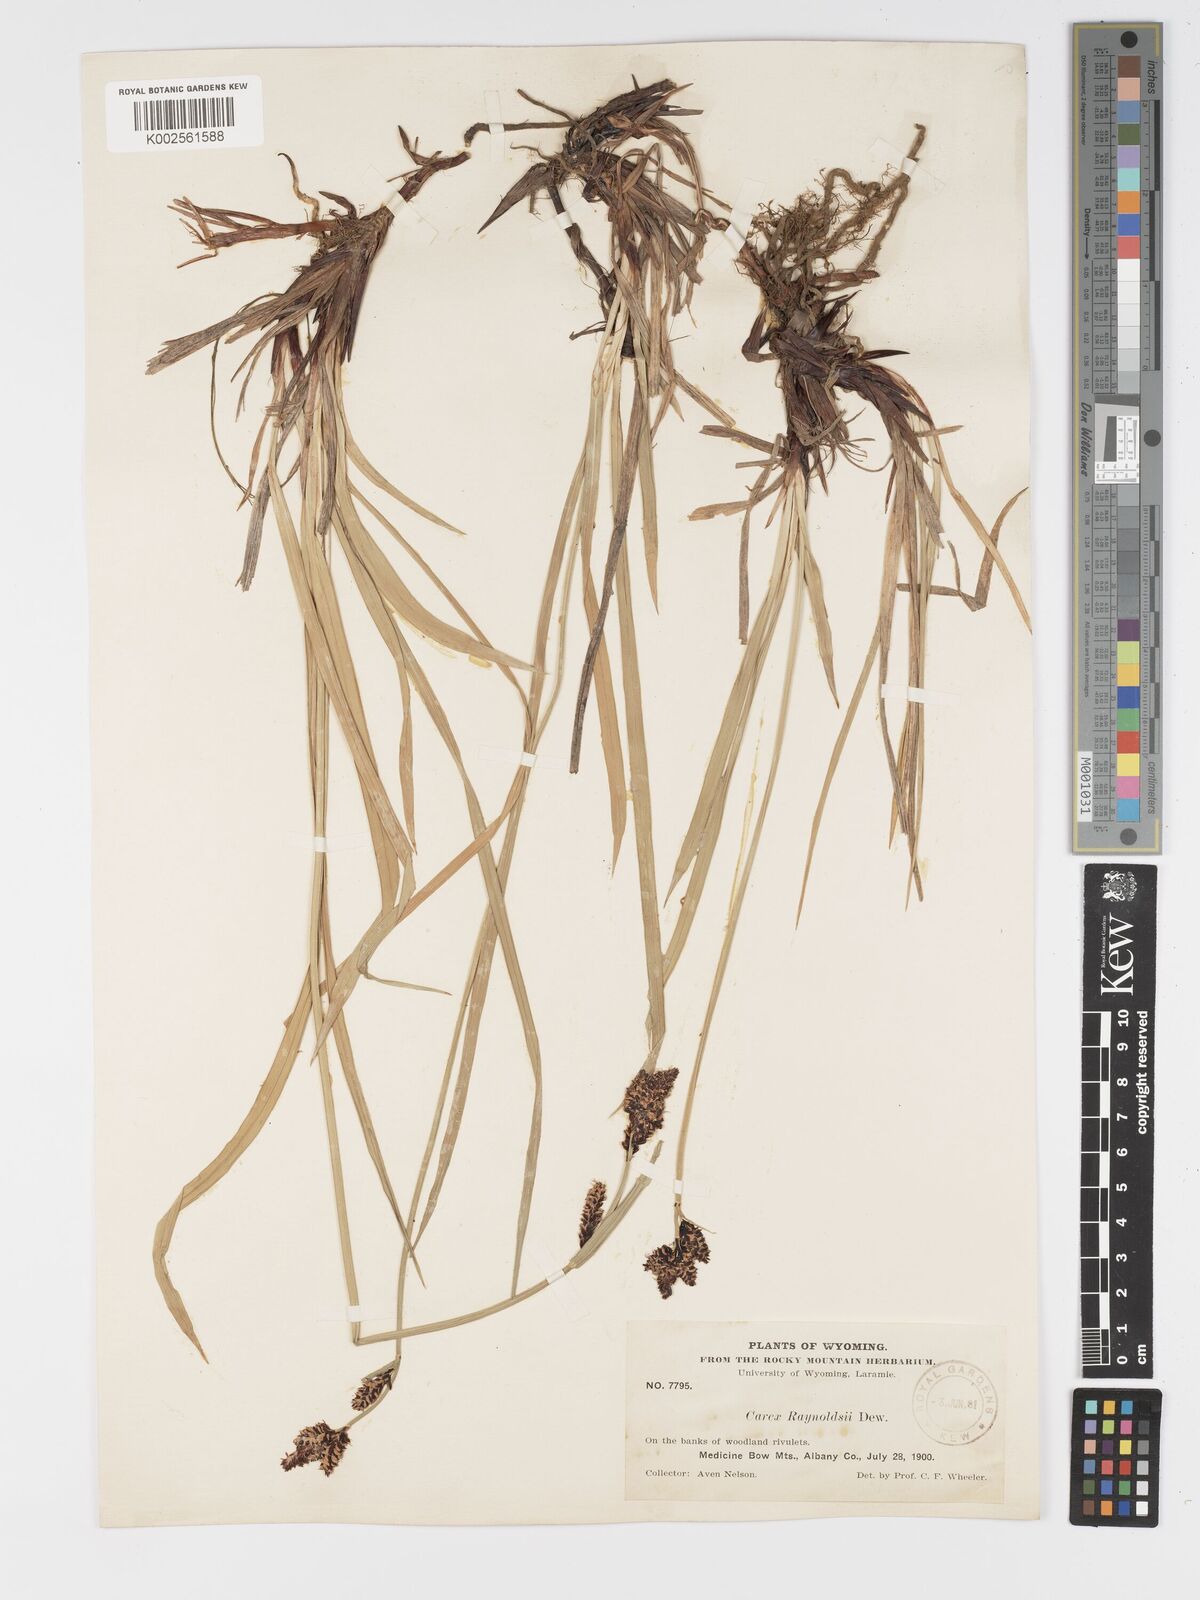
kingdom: Plantae
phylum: Tracheophyta
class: Liliopsida
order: Poales
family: Cyperaceae
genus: Carex
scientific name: Carex raynoldsii
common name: Raynolds' sedge
